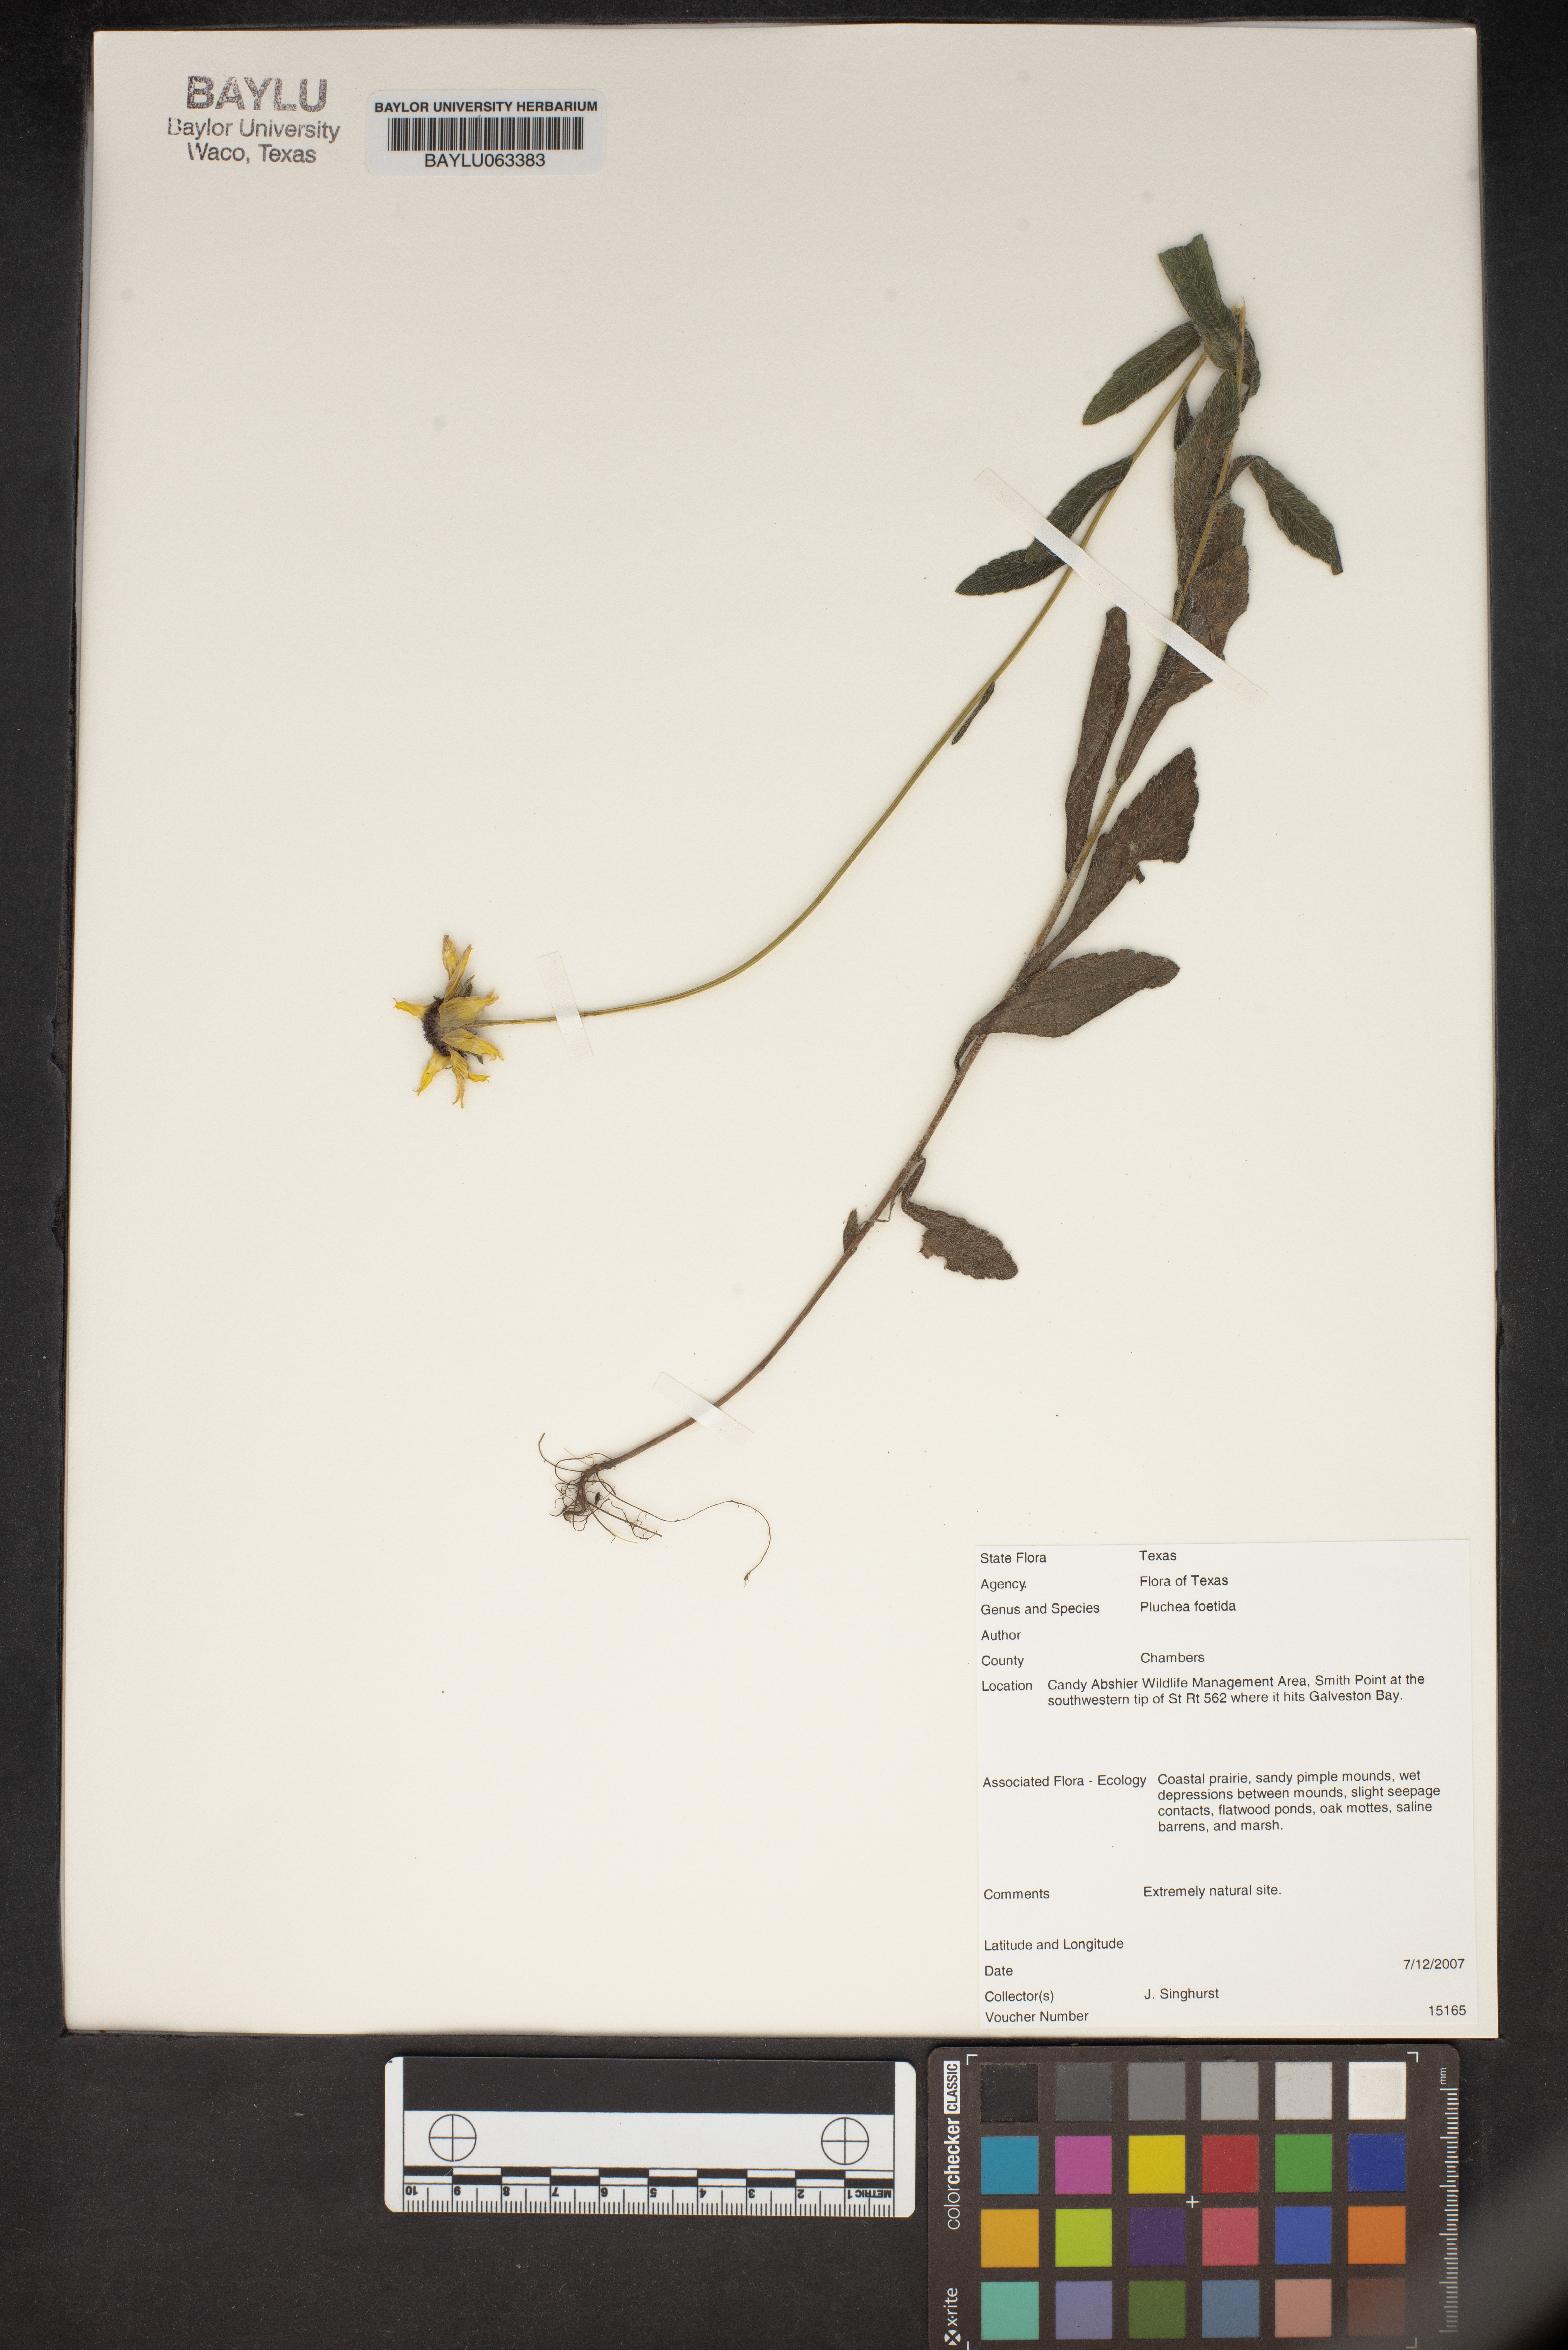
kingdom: Plantae
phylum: Tracheophyta
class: Magnoliopsida
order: Asterales
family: Asteraceae
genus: Pluchea
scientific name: Pluchea foetida
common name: Stinking camphorweed
